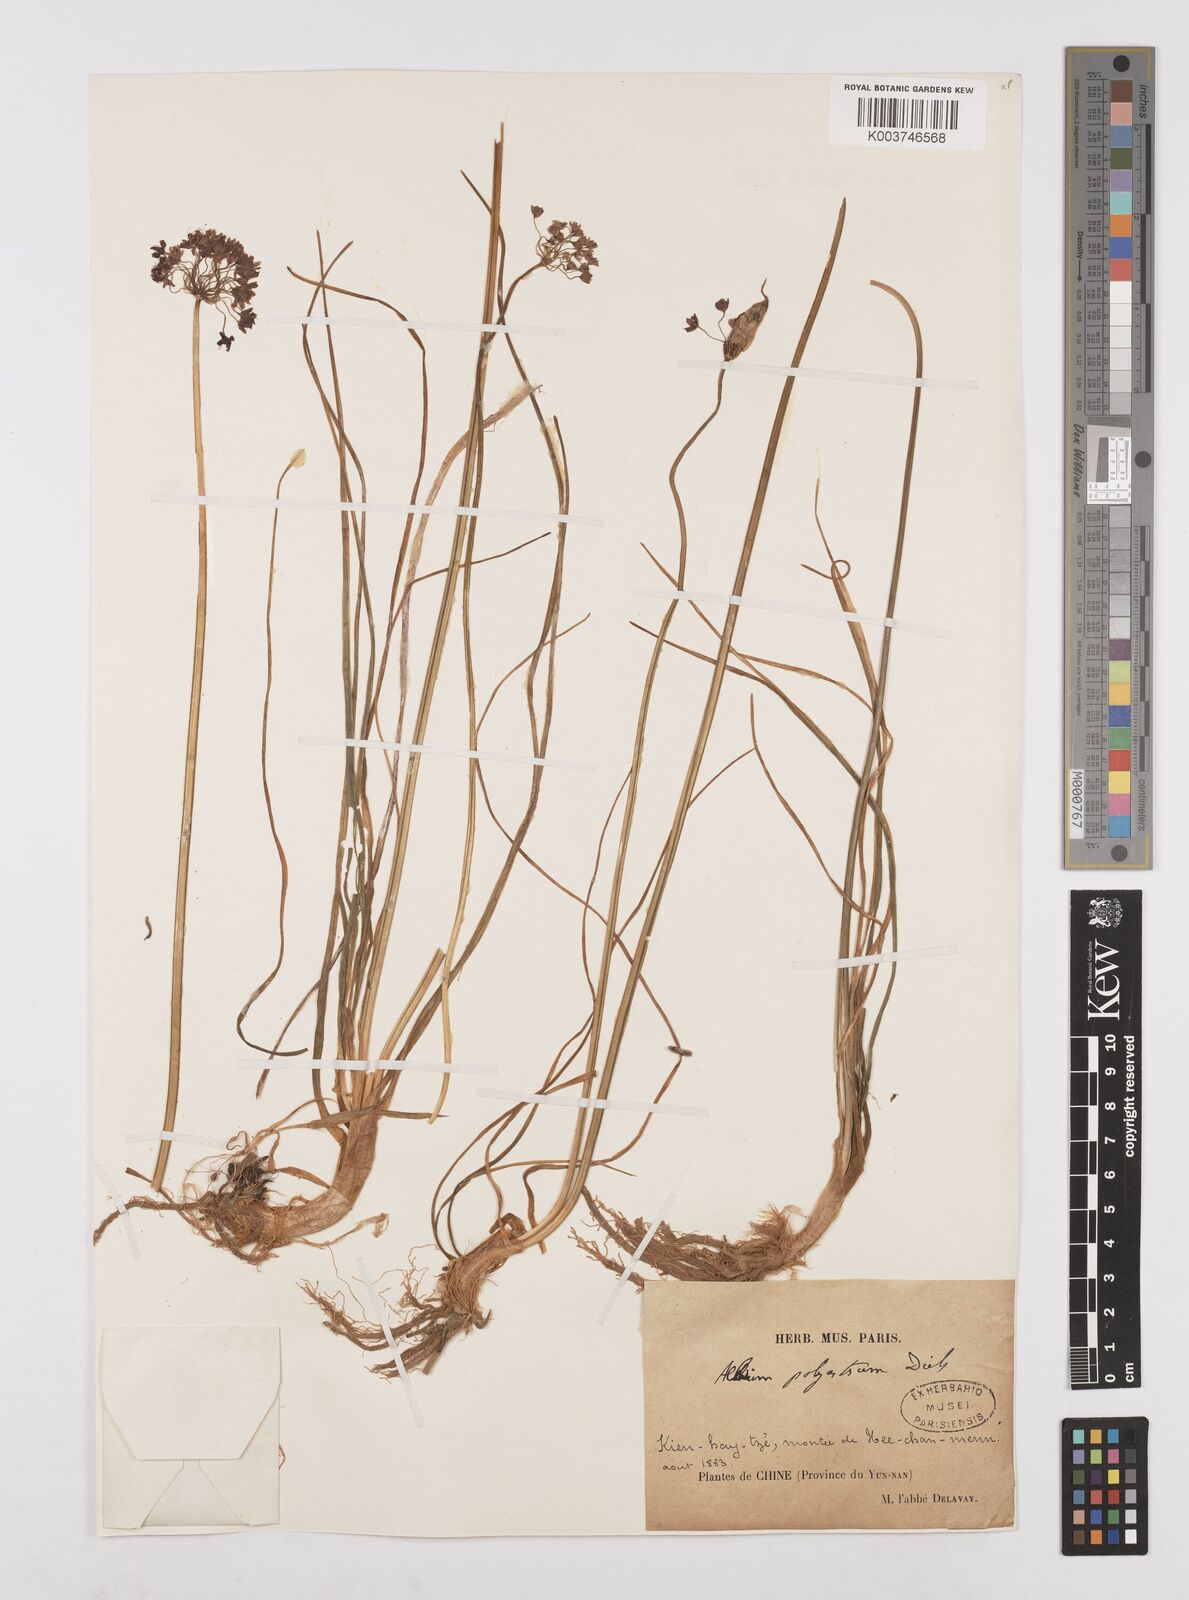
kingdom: Plantae
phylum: Tracheophyta
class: Liliopsida
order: Asparagales
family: Amaryllidaceae
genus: Allium
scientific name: Allium wallichii
